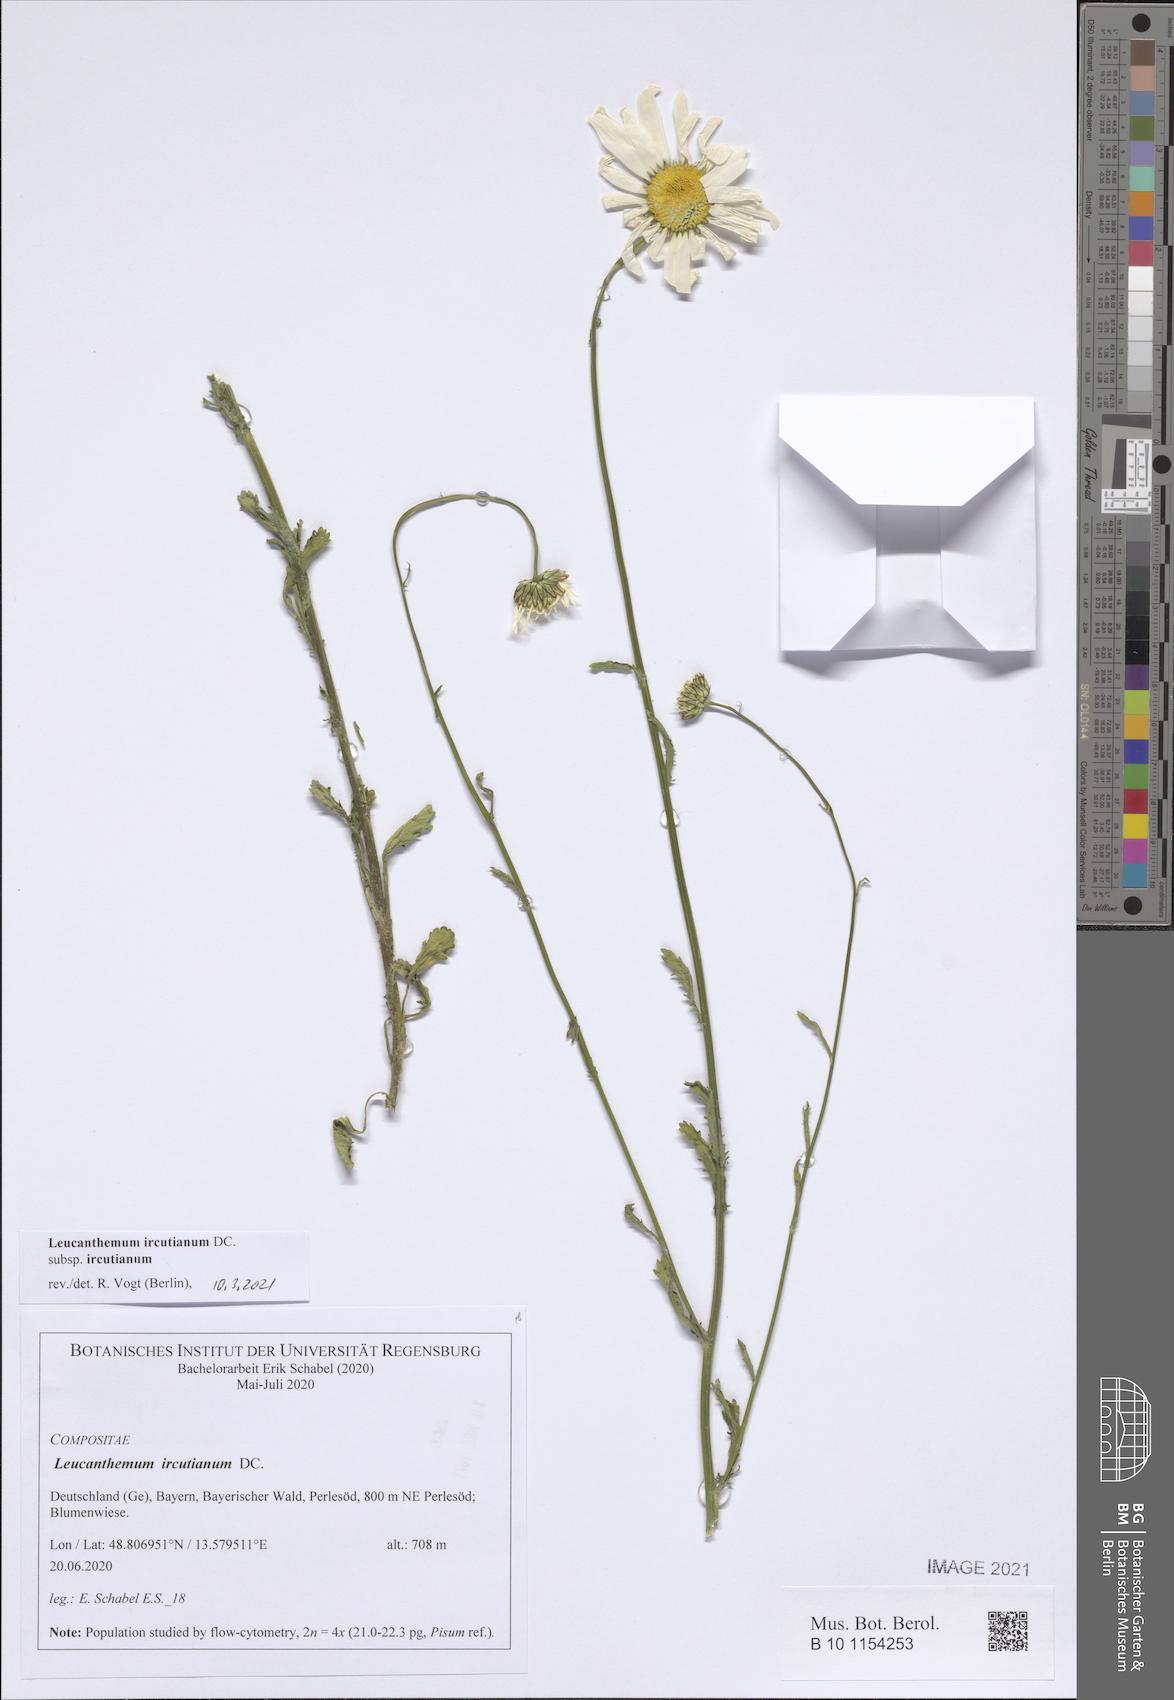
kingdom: Plantae
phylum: Tracheophyta
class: Magnoliopsida
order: Asterales
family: Asteraceae
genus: Leucanthemum
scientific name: Leucanthemum ircutianum
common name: Daisy
